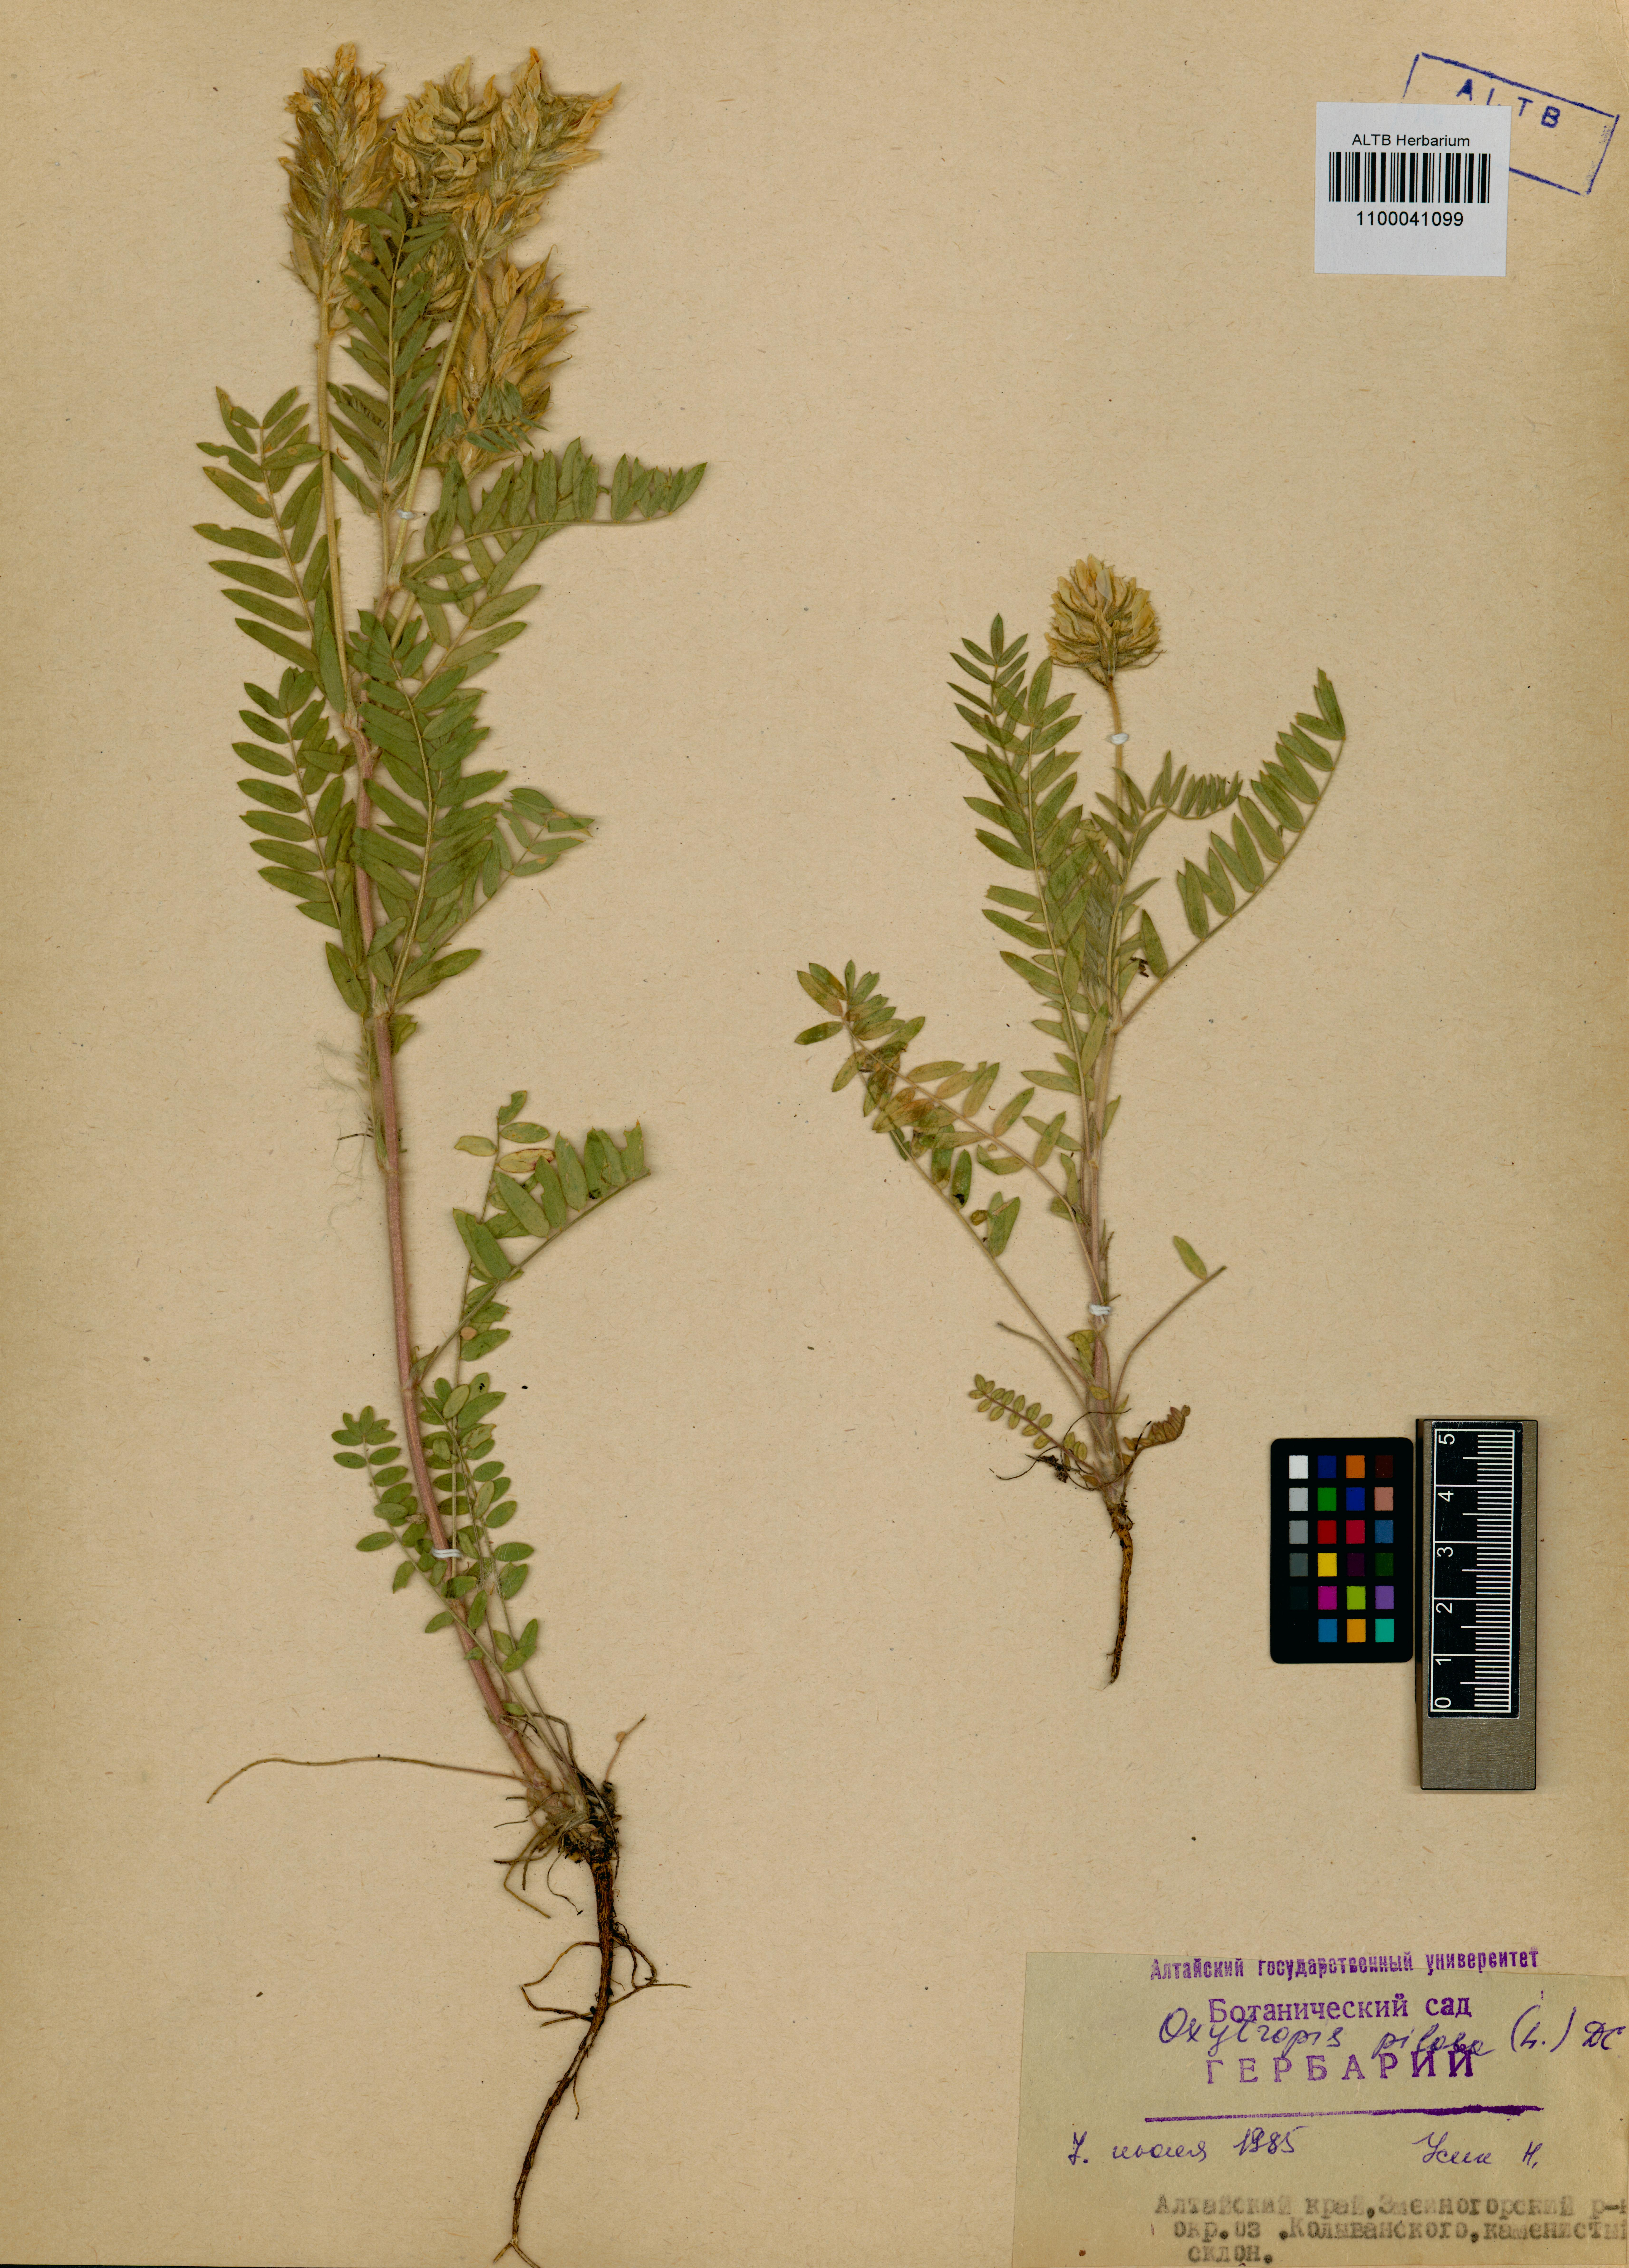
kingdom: Plantae
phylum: Tracheophyta
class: Magnoliopsida
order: Fabales
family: Fabaceae
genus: Oxytropis
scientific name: Oxytropis pilosa
